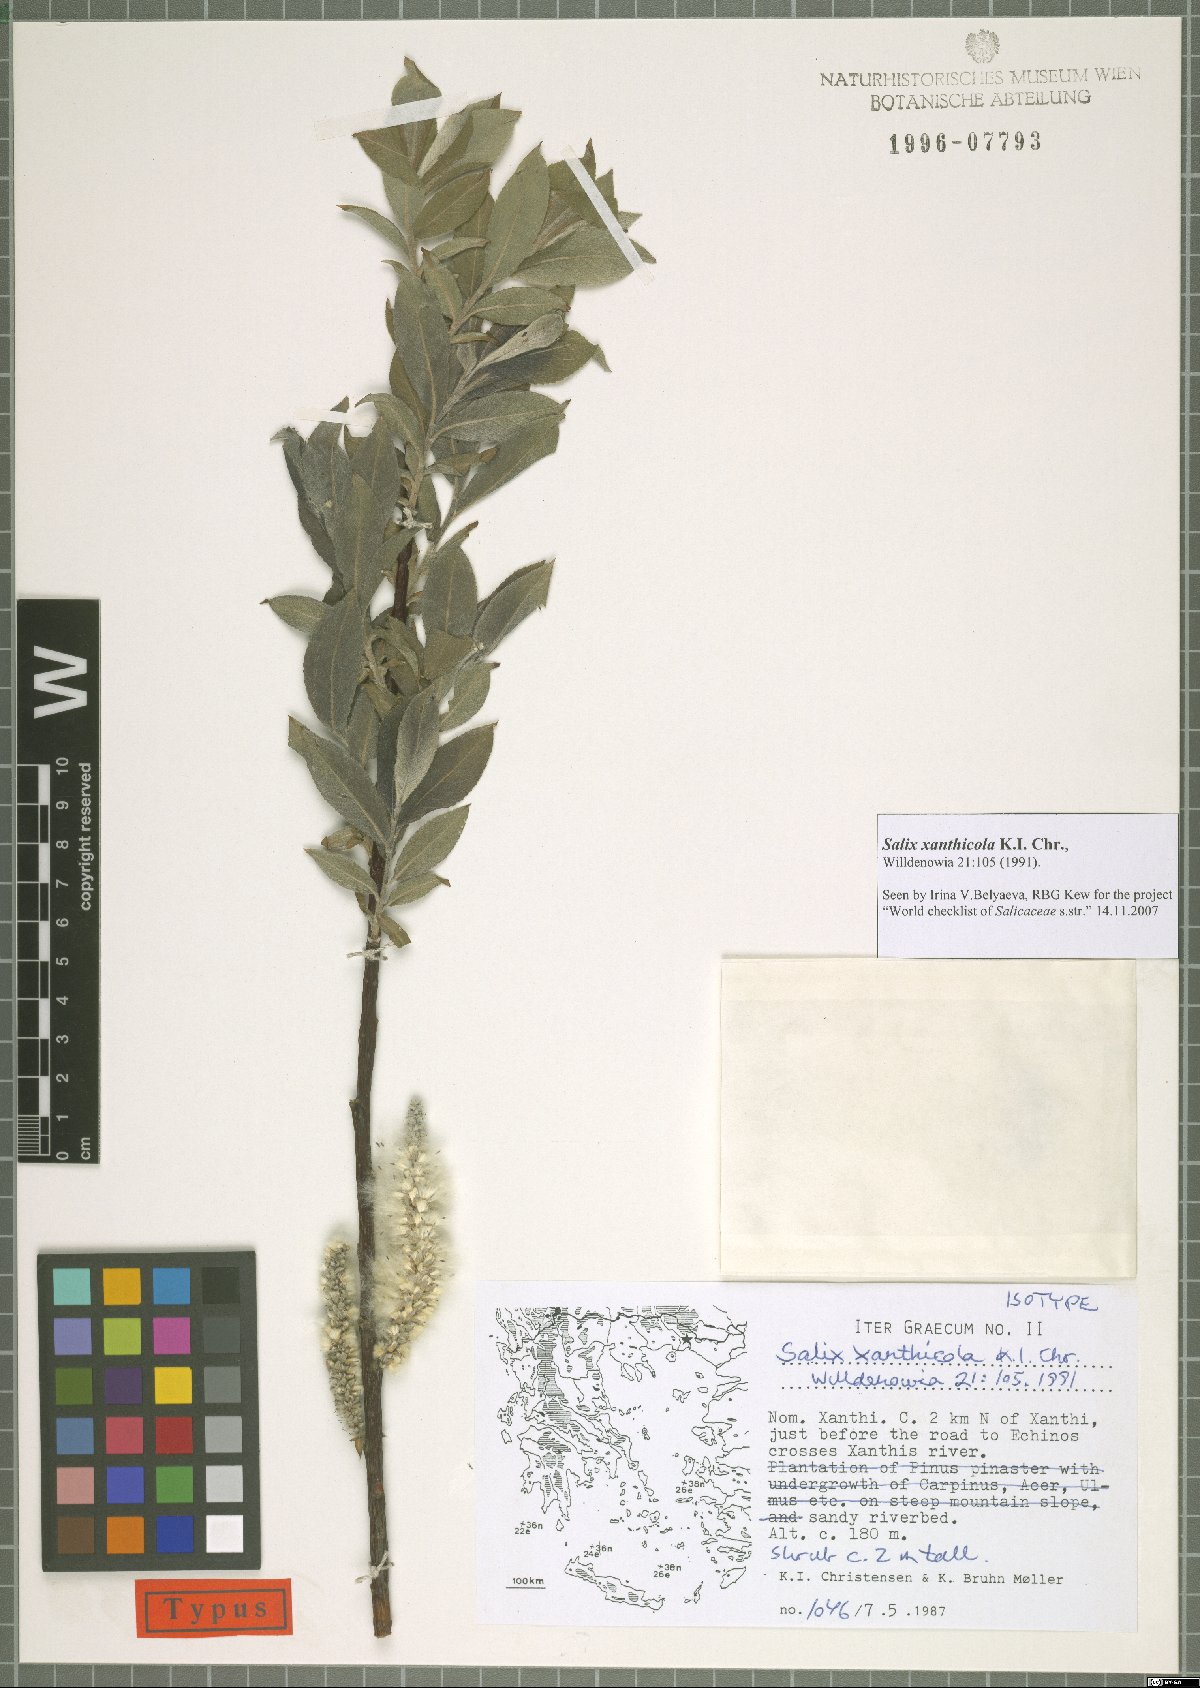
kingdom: Plantae
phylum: Tracheophyta
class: Magnoliopsida
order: Malpighiales
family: Salicaceae
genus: Salix
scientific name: Salix xanthicola
